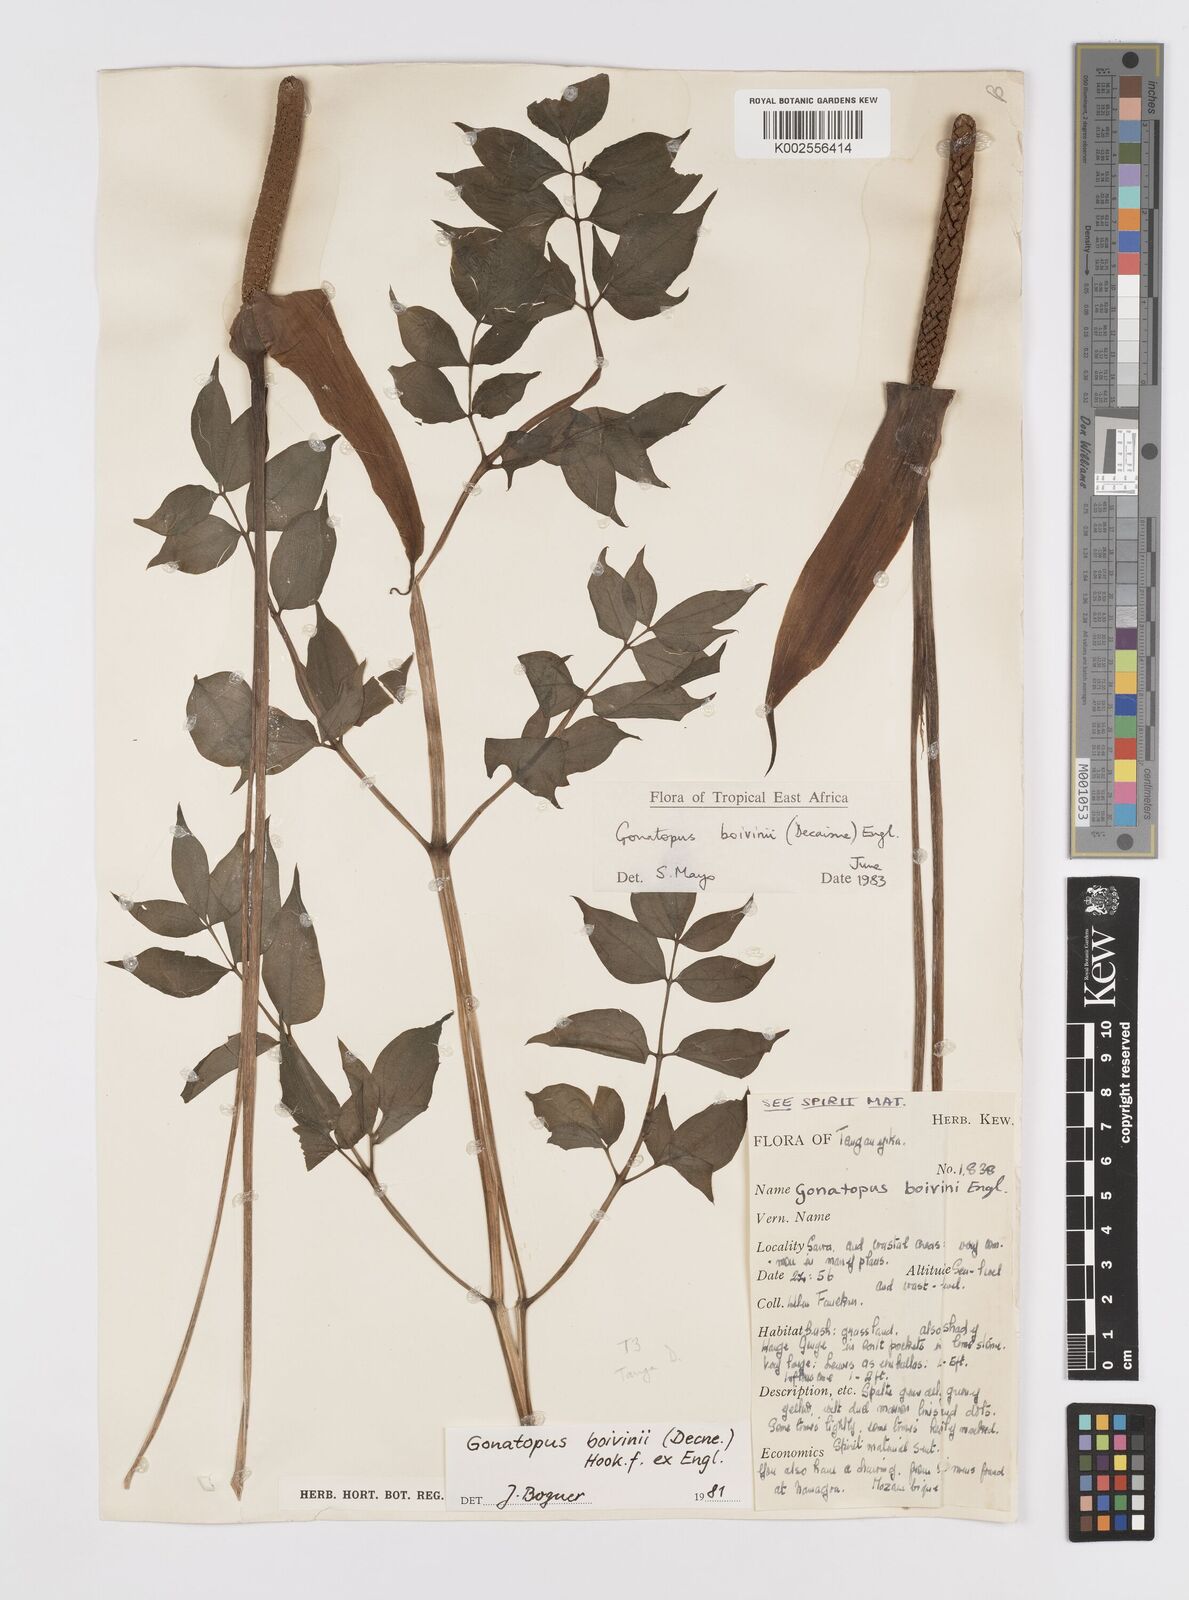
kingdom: Plantae
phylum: Tracheophyta
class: Liliopsida
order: Alismatales
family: Araceae
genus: Gonatopus
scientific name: Gonatopus boivinii
